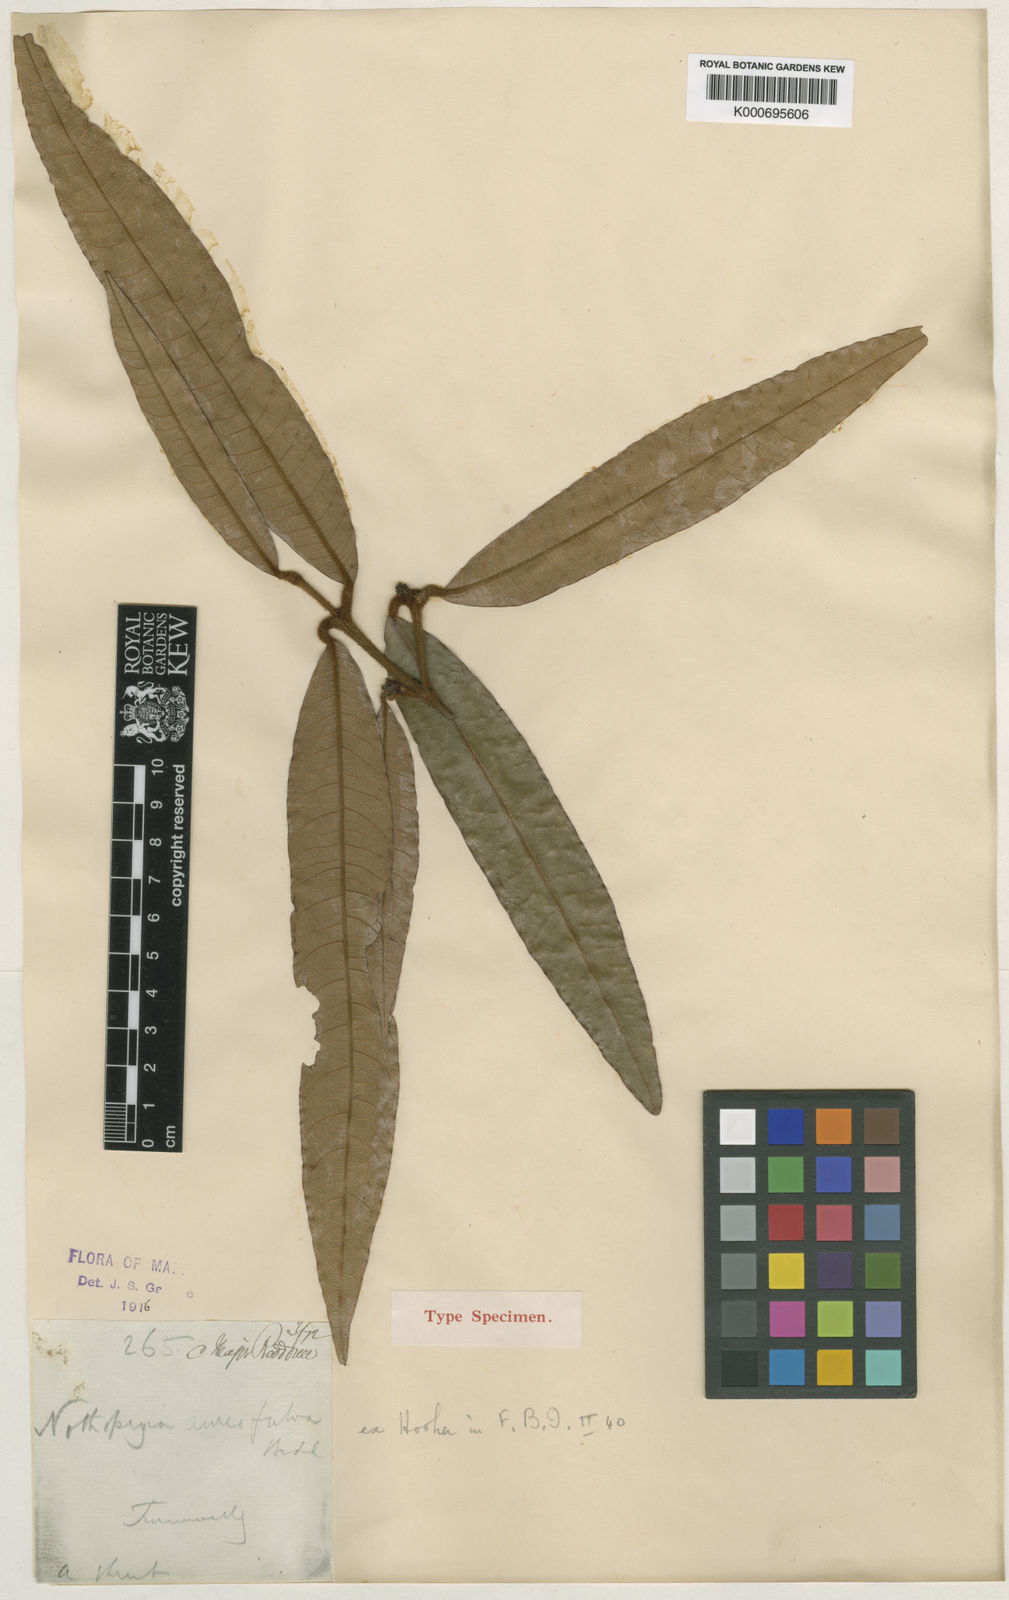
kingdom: Plantae
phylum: Tracheophyta
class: Magnoliopsida
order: Sapindales
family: Anacardiaceae
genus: Nothopegia
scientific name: Nothopegia aureofulva
